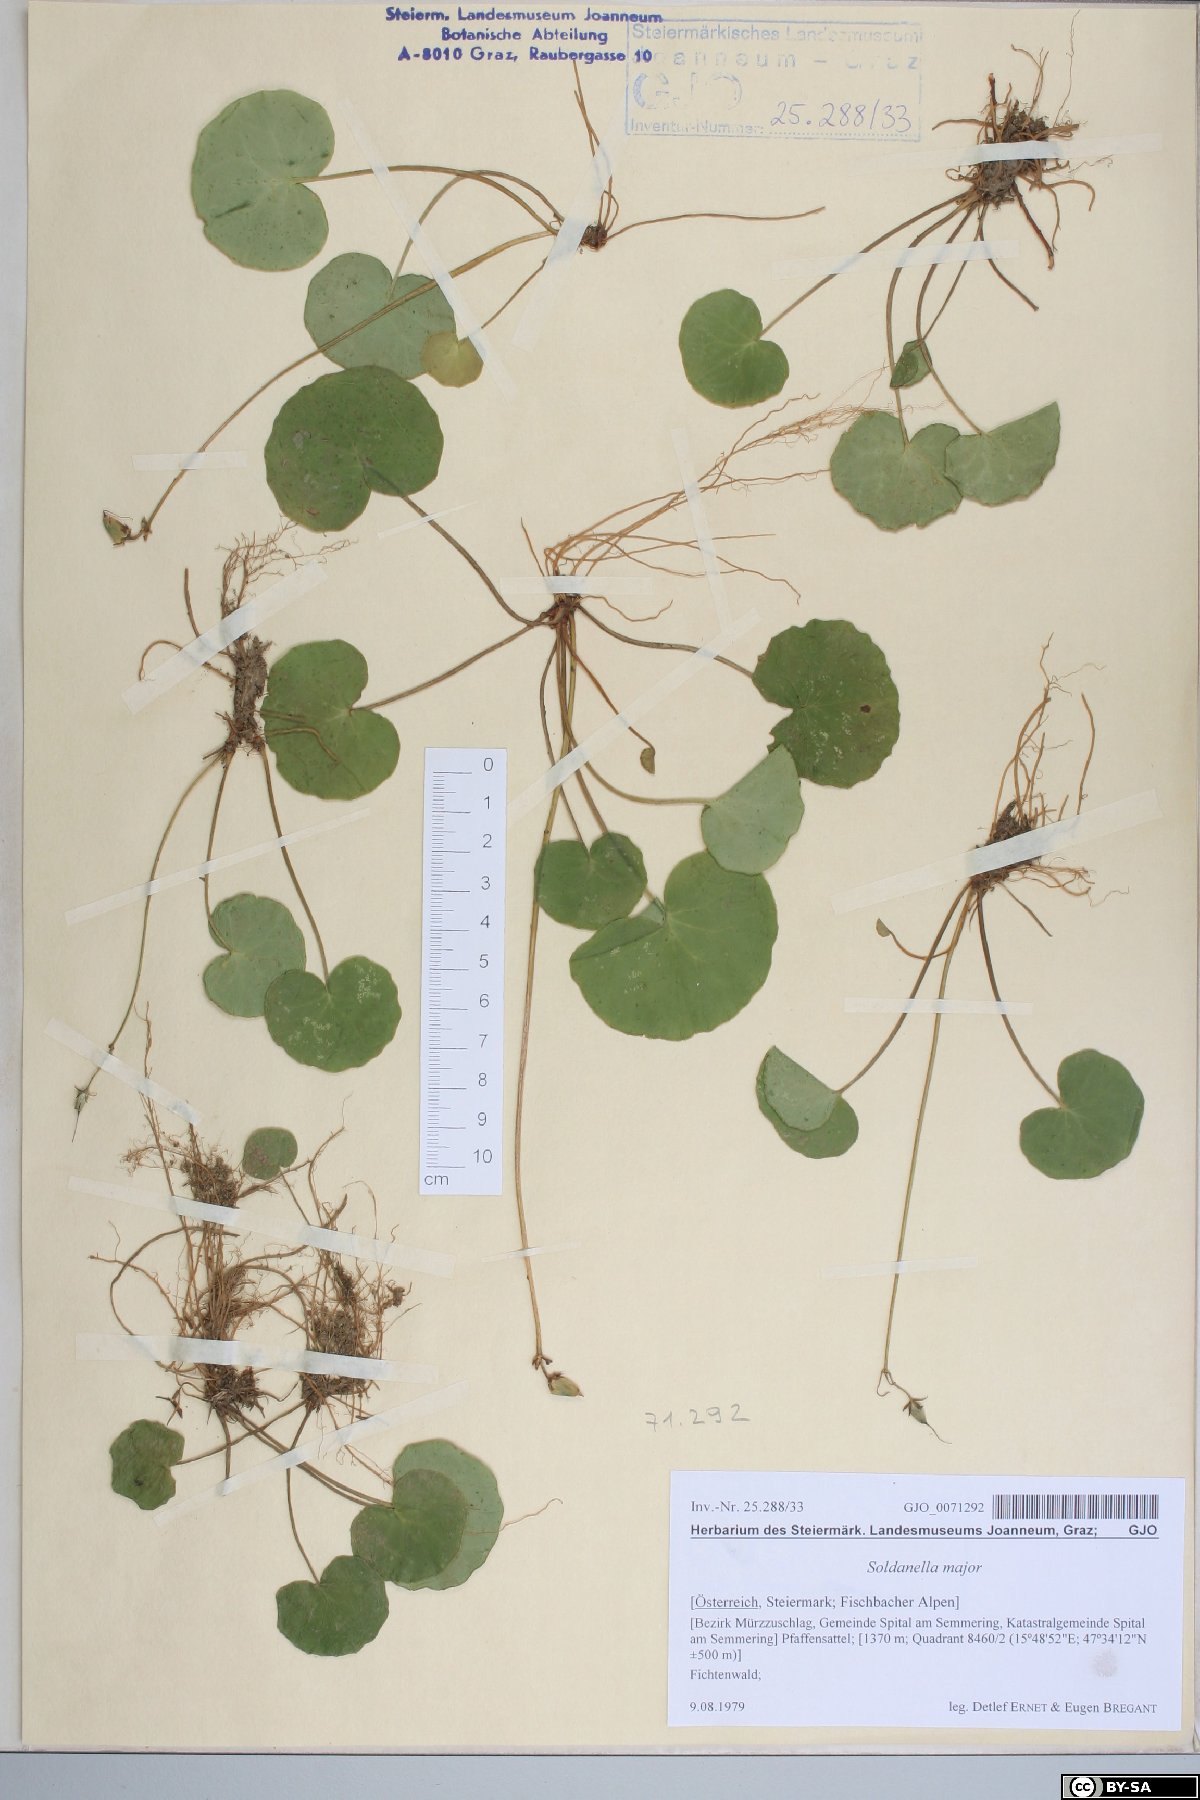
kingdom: Plantae
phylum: Tracheophyta
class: Magnoliopsida
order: Ericales
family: Primulaceae
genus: Soldanella
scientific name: Soldanella major
